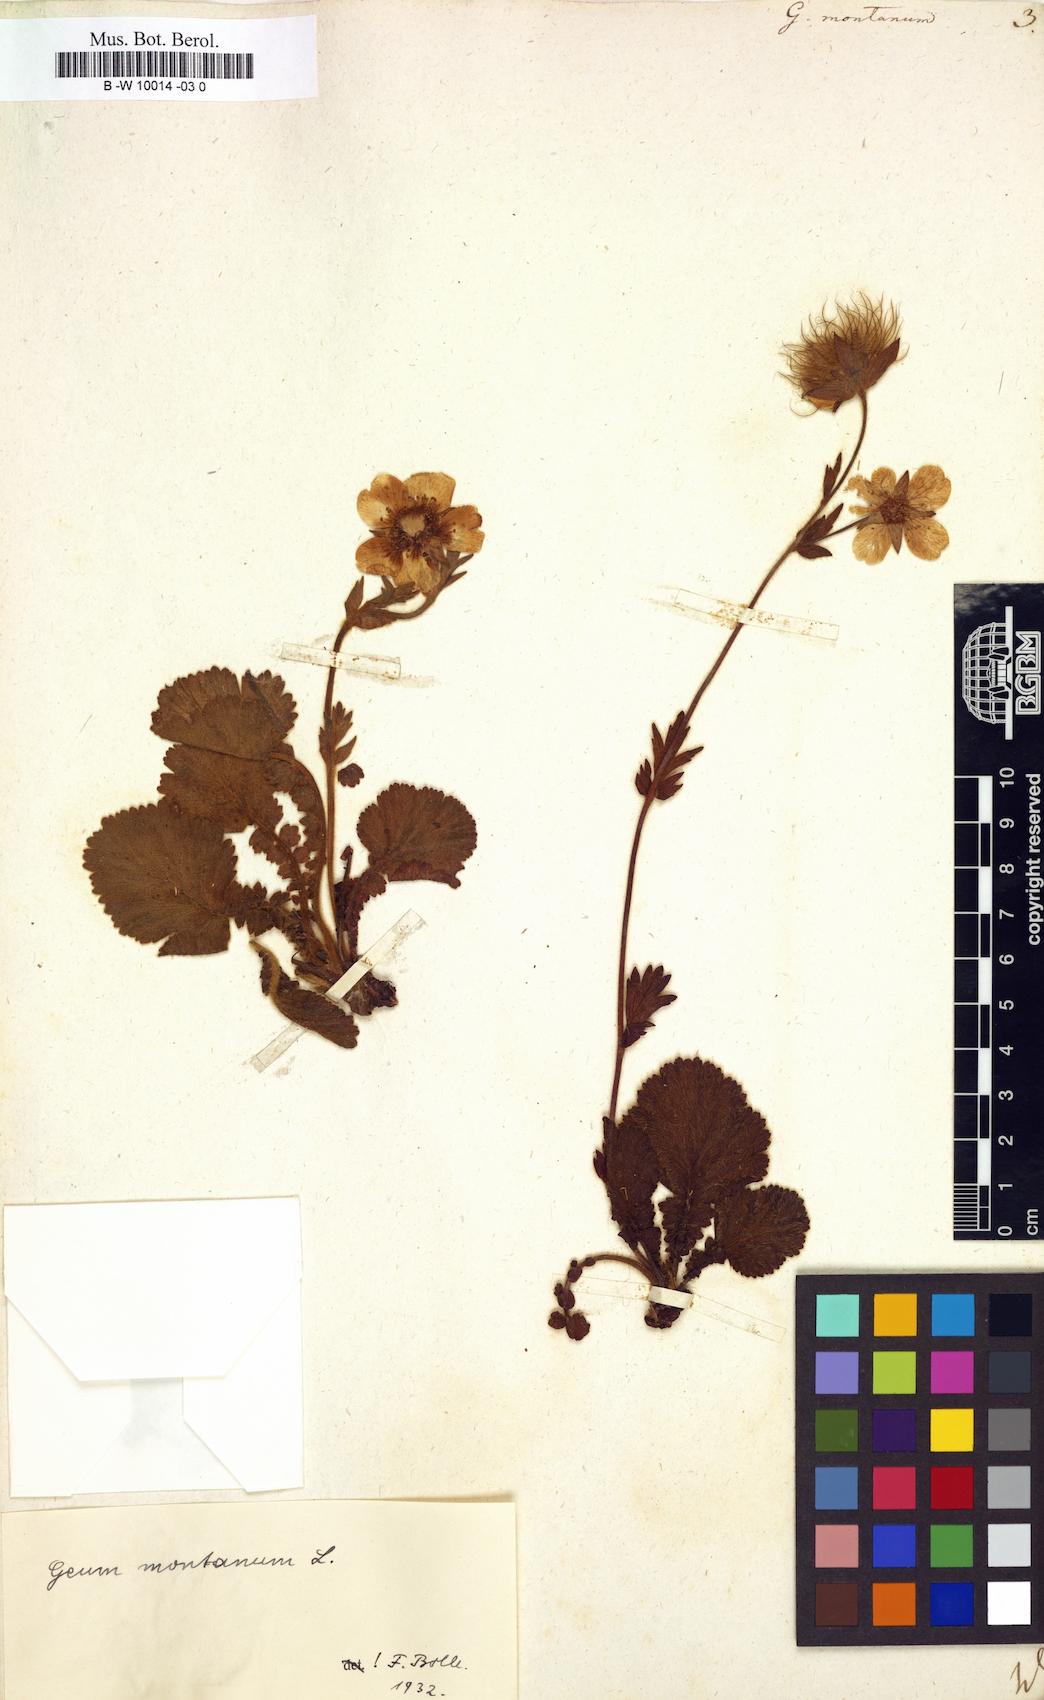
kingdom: Plantae
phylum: Tracheophyta
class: Magnoliopsida
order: Rosales
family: Rosaceae
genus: Geum
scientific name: Geum montanum
